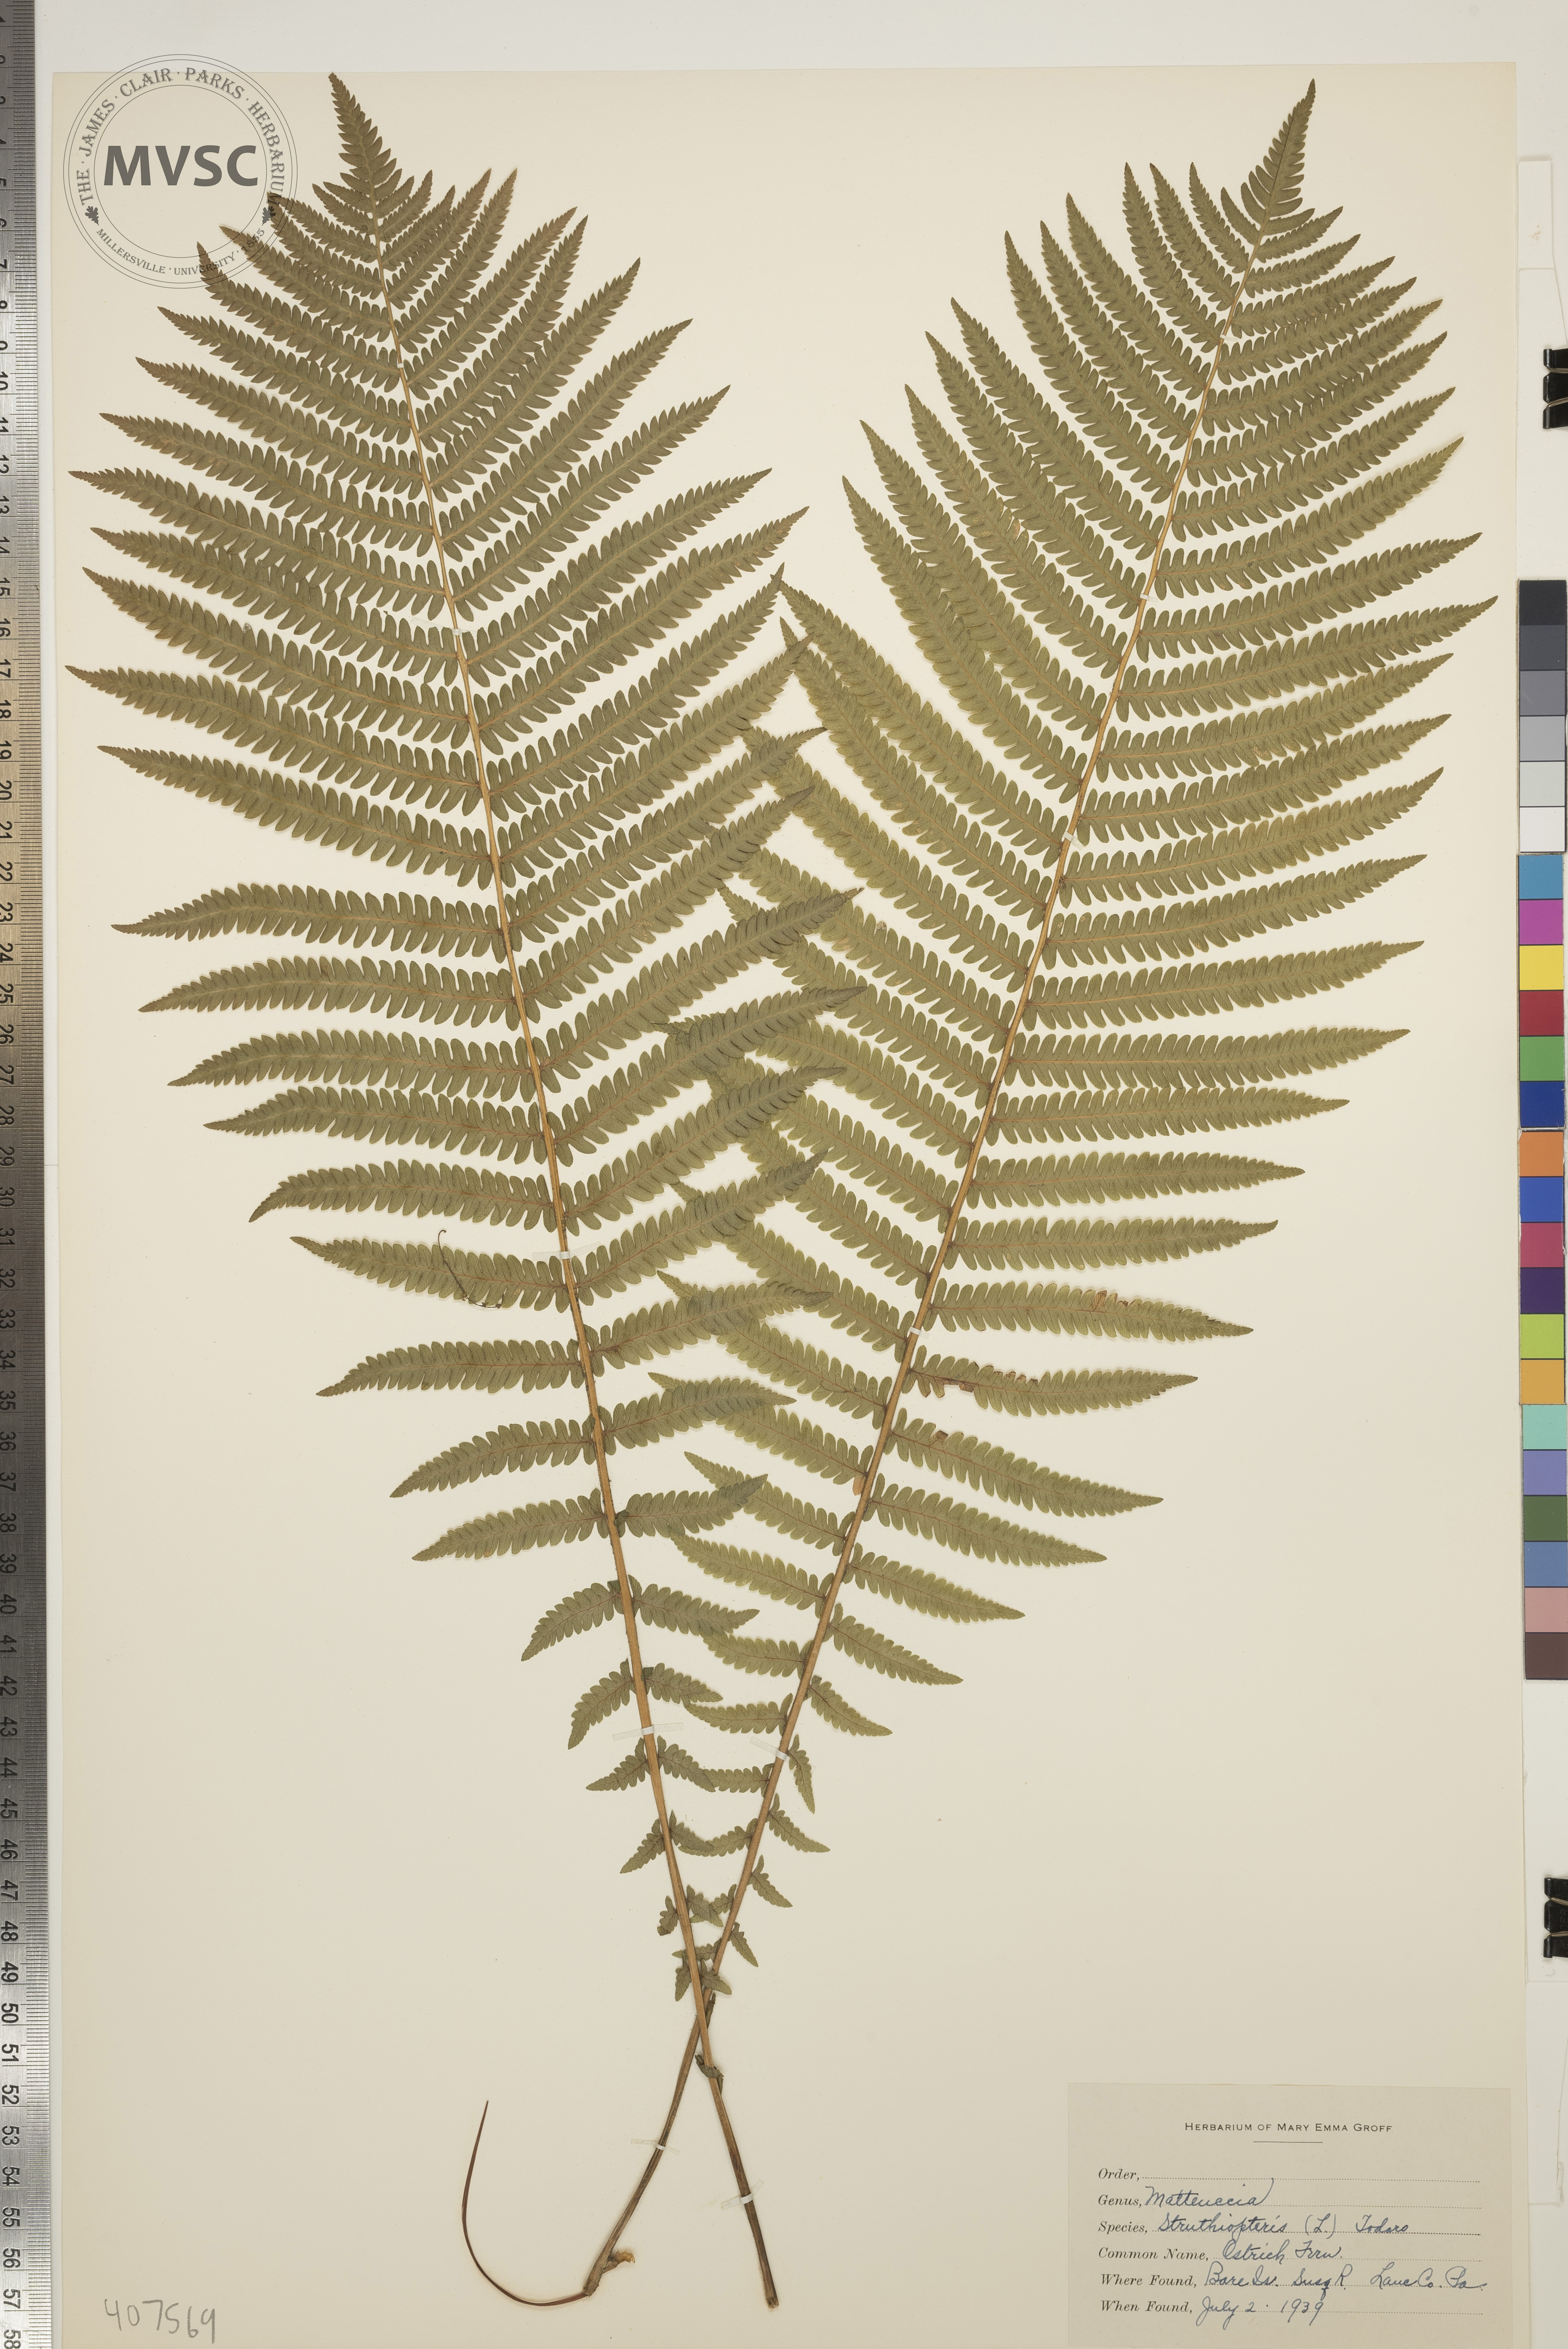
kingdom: Plantae
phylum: Tracheophyta
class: Polypodiopsida
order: Polypodiales
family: Onocleaceae
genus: Matteuccia
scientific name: Matteuccia struthiopteris
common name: Ostrich Fern
